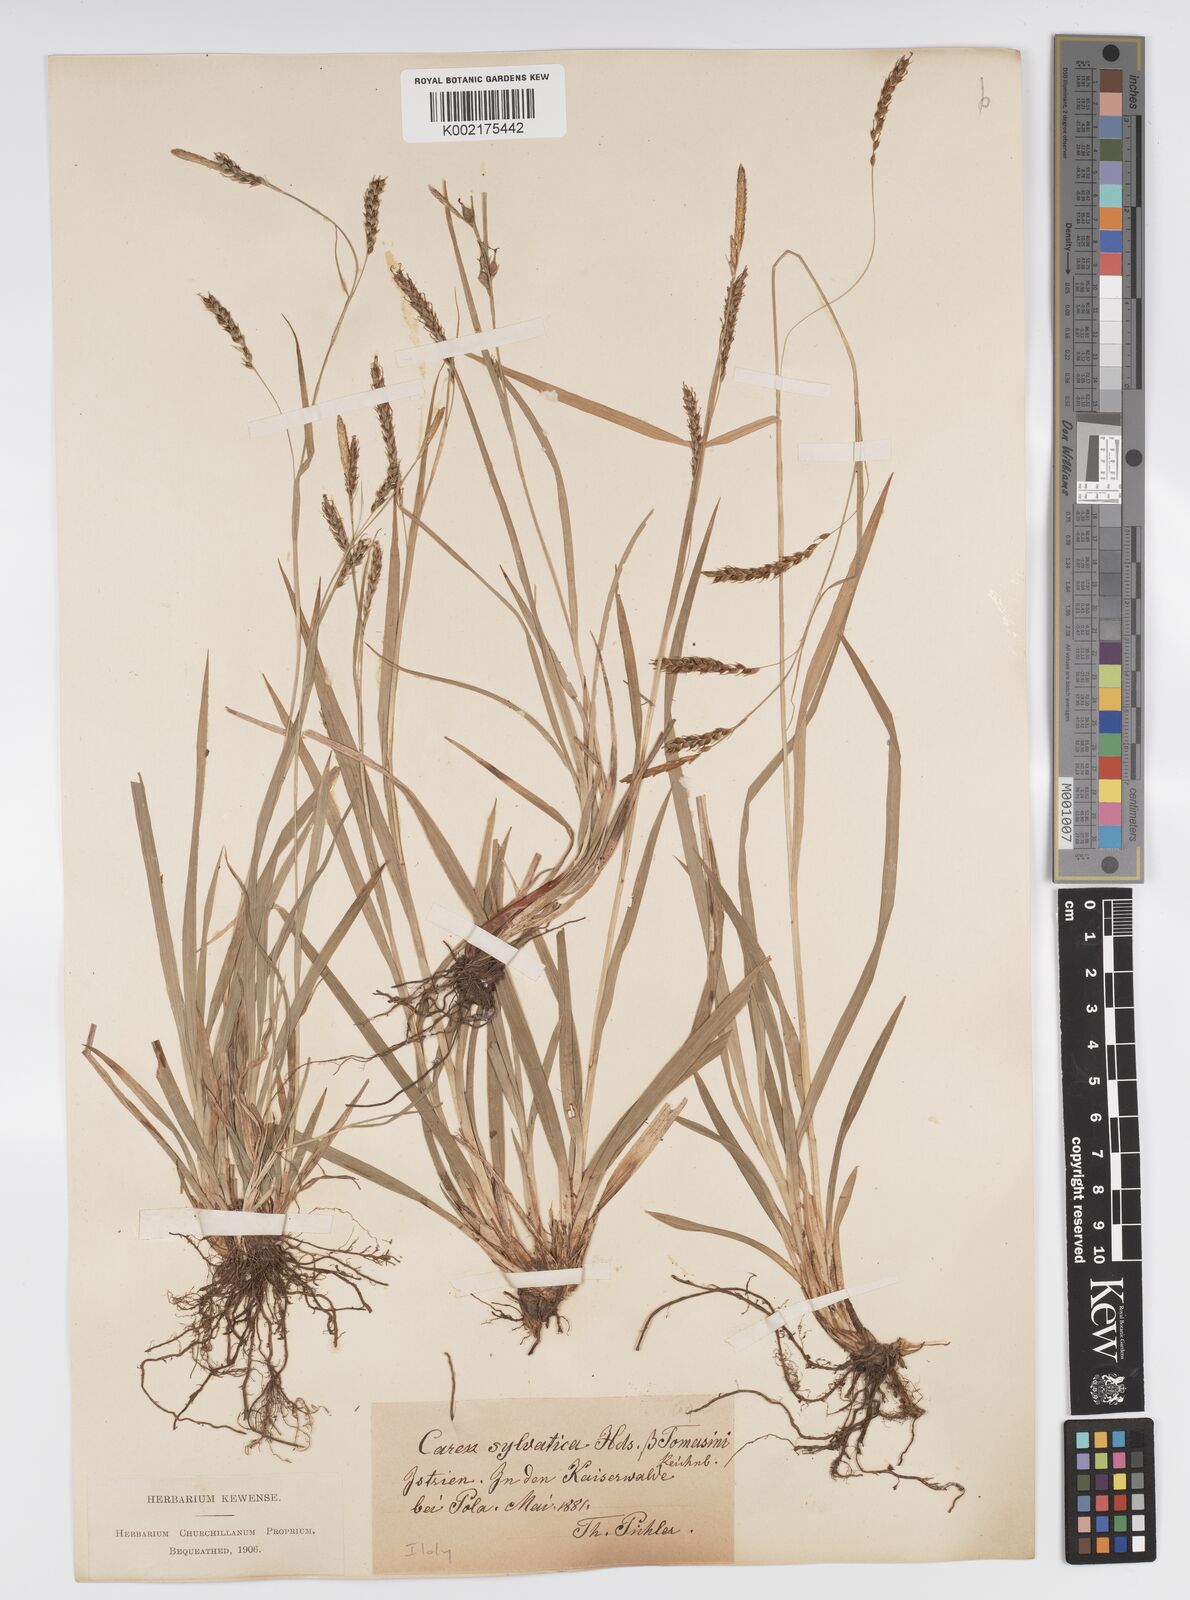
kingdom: Plantae
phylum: Tracheophyta
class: Liliopsida
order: Poales
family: Cyperaceae
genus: Carex
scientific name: Carex sylvatica
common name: Wood-sedge
